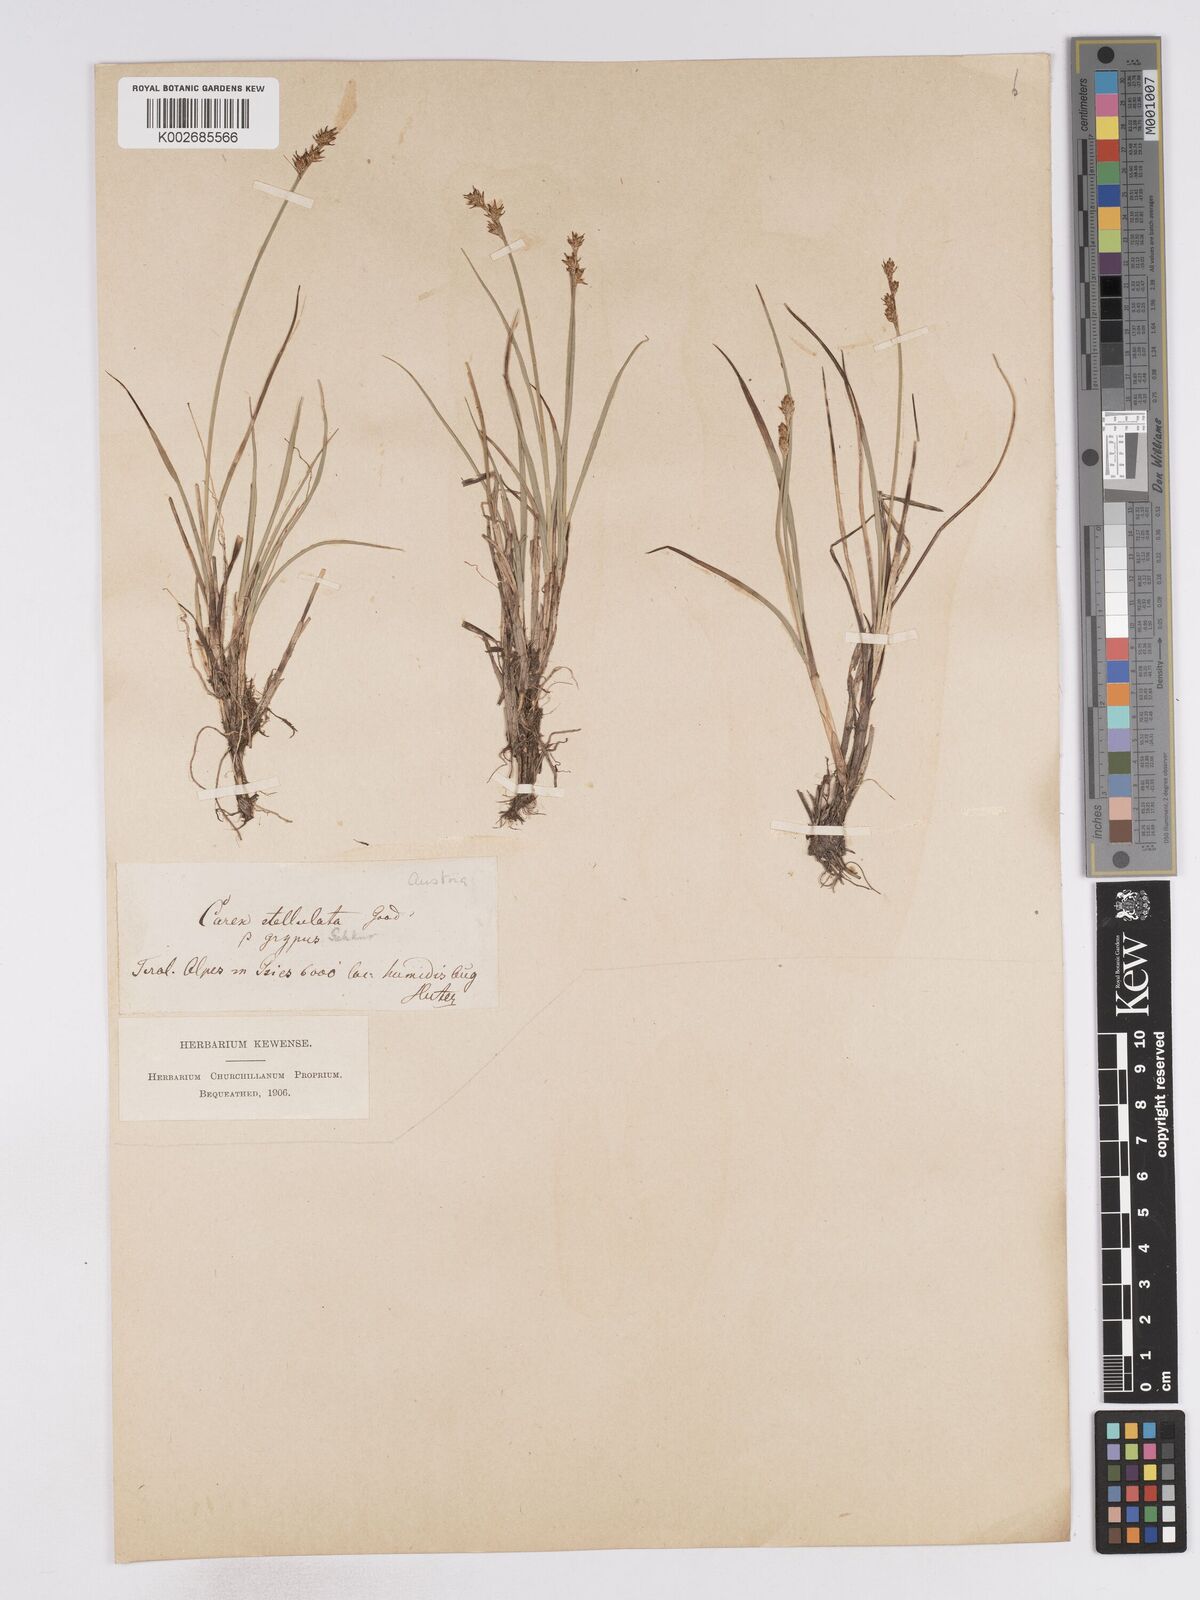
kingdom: Plantae
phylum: Tracheophyta
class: Liliopsida
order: Poales
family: Cyperaceae
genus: Carex
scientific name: Carex echinata
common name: Star sedge
